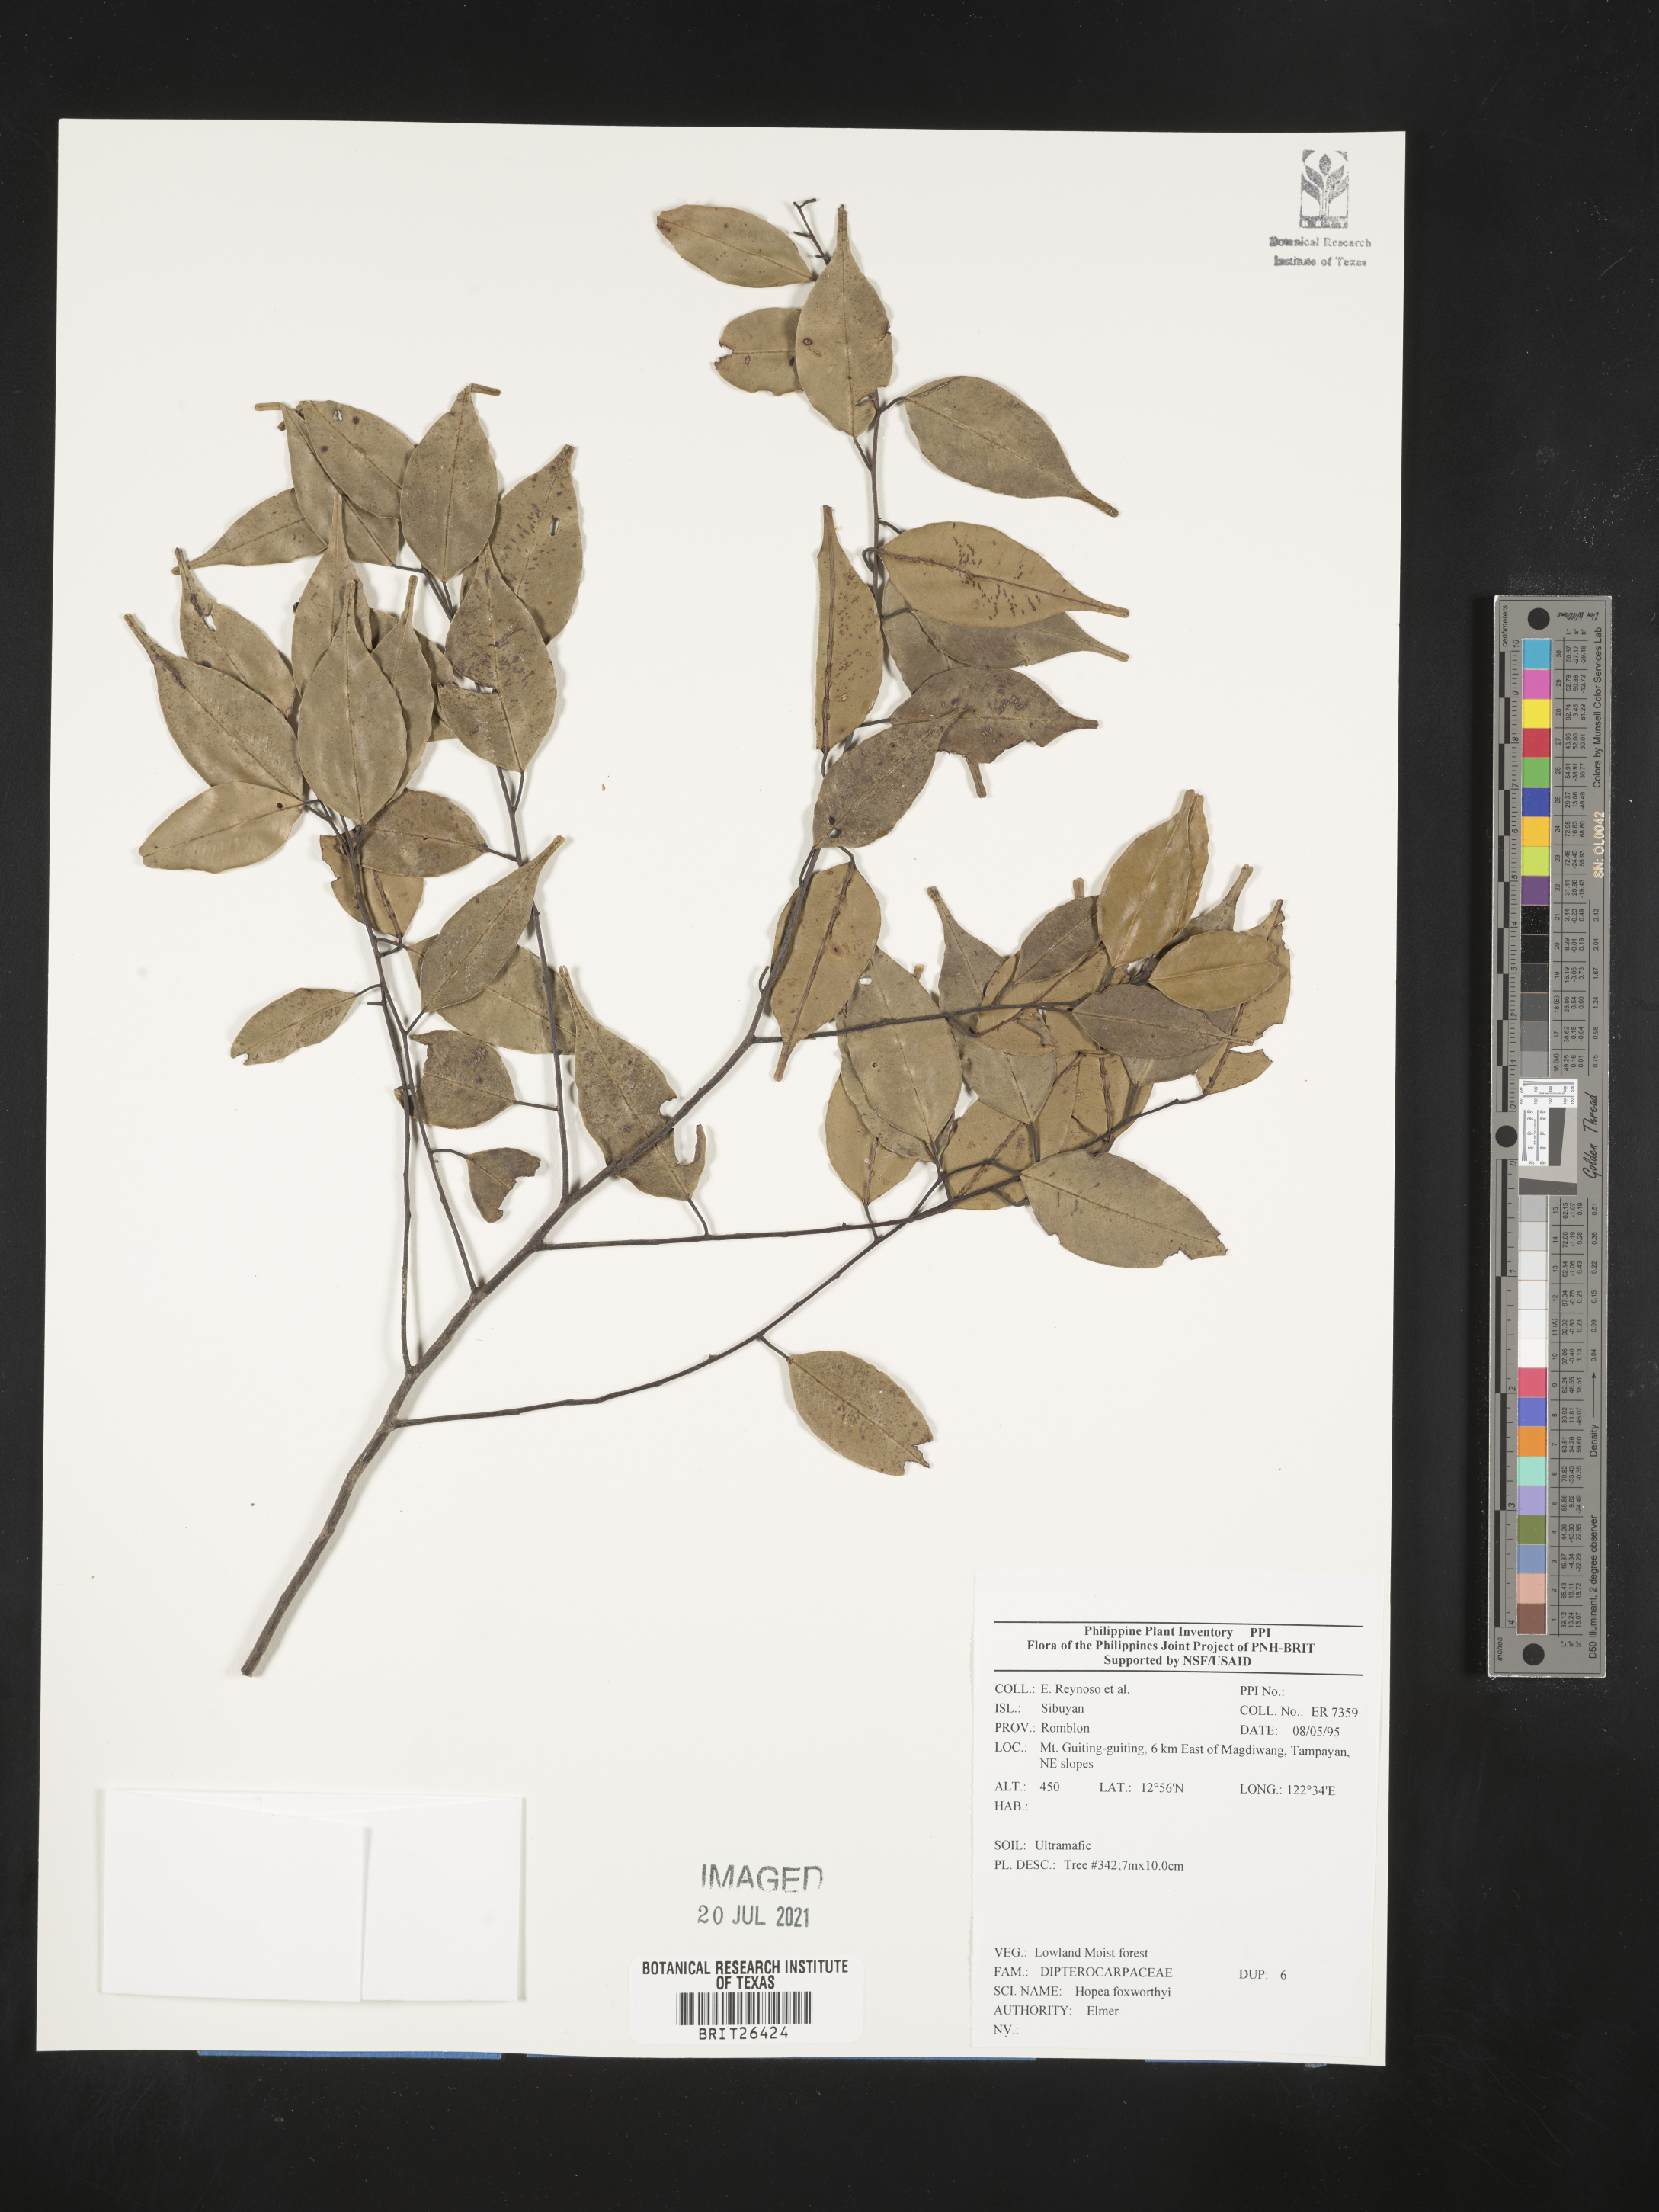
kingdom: Plantae
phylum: Tracheophyta
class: Magnoliopsida
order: Malvales
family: Dipterocarpaceae
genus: Hopea
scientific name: Hopea foxworthyi
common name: Dalingdingan
